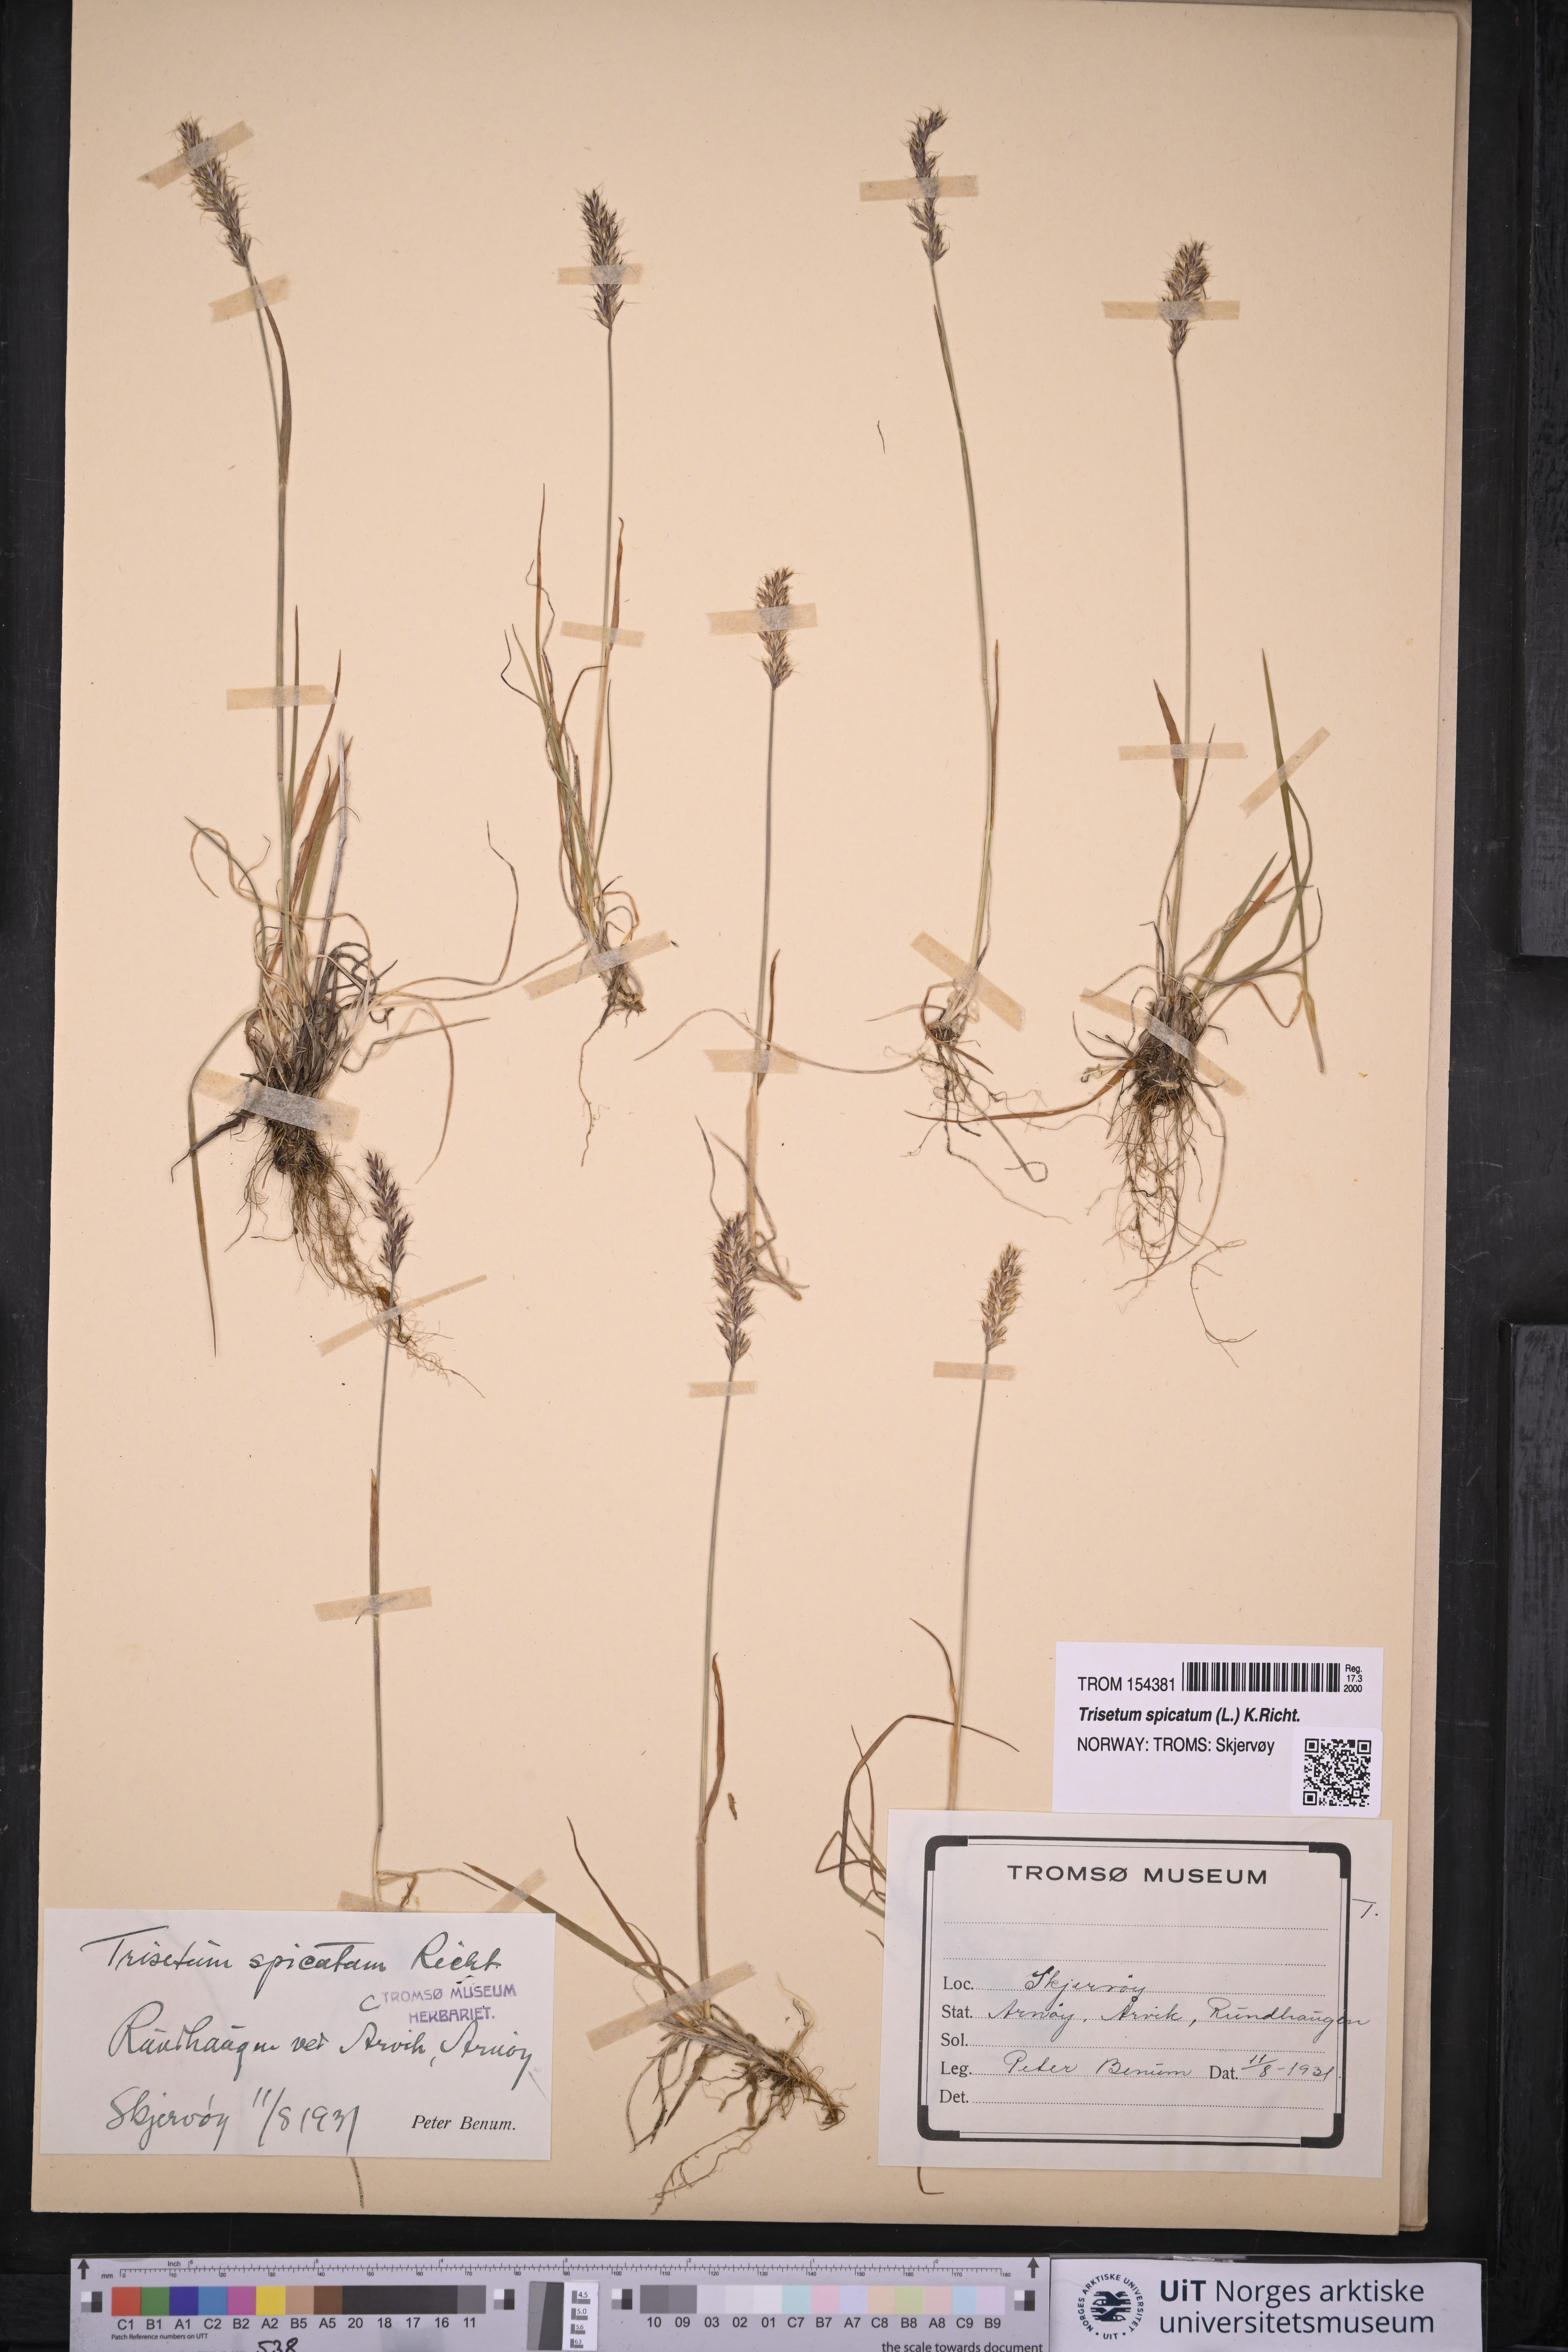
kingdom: Plantae
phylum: Tracheophyta
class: Liliopsida
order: Poales
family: Poaceae
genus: Koeleria
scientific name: Koeleria spicata
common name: Mountain trisetum
